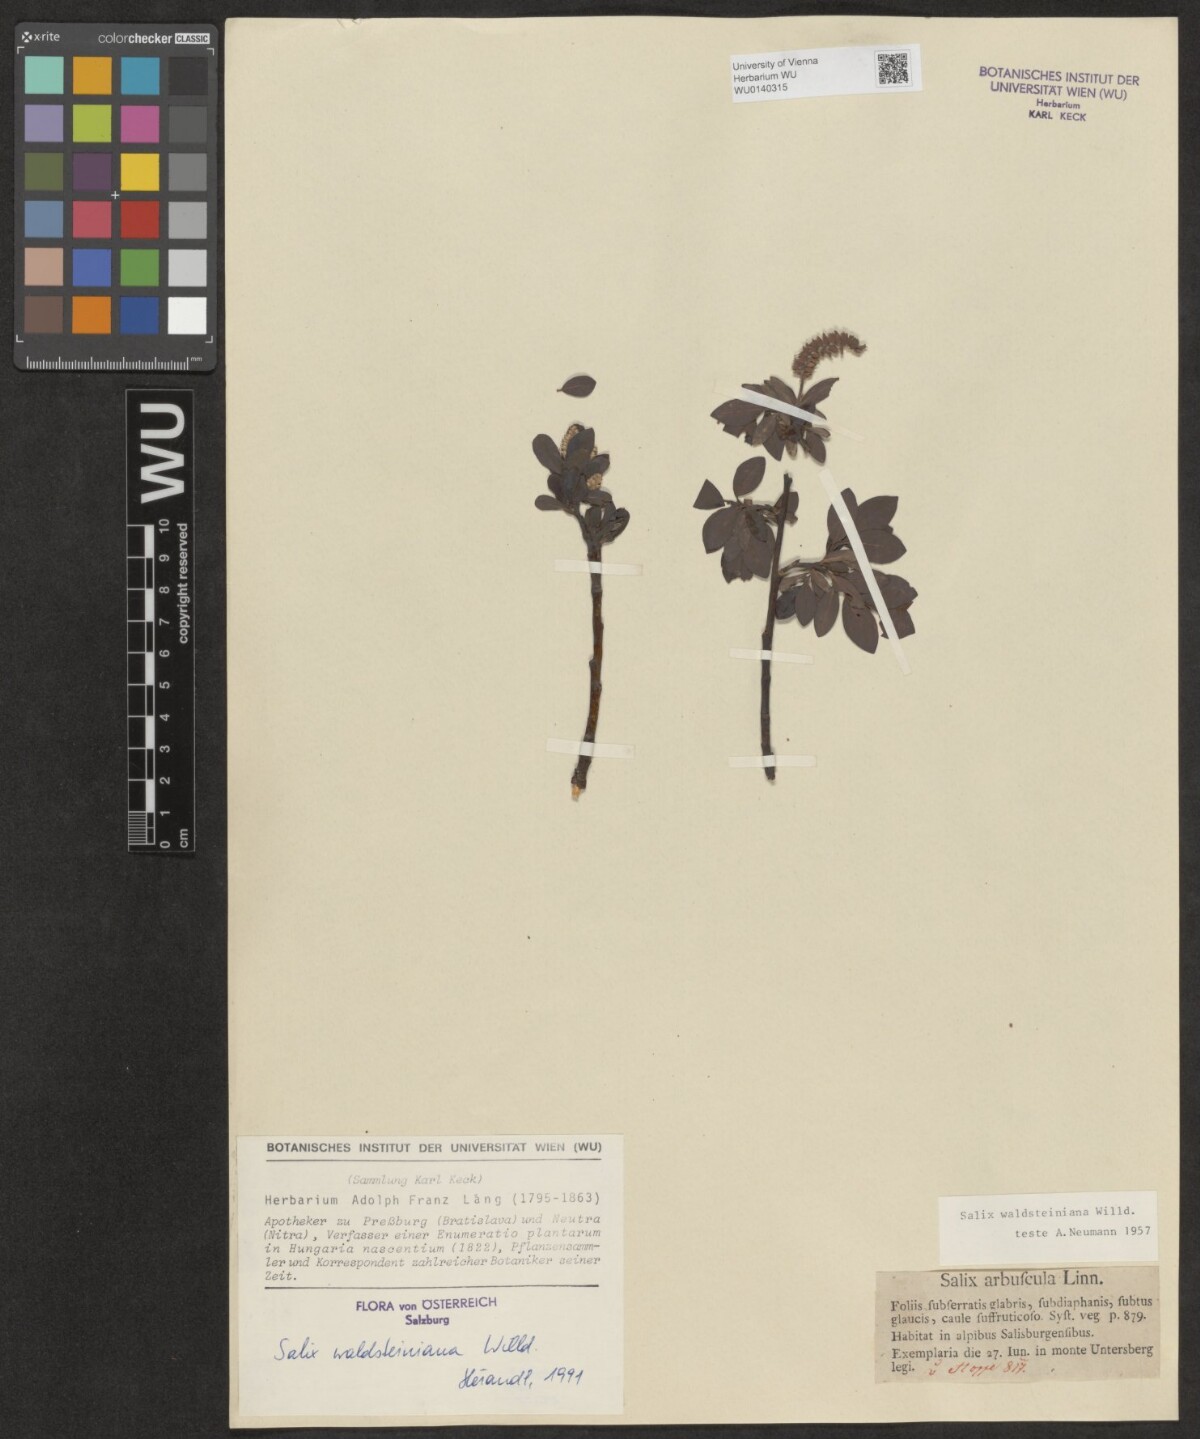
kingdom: Plantae
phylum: Tracheophyta
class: Magnoliopsida
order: Malpighiales
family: Salicaceae
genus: Salix
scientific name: Salix waldsteiniana
